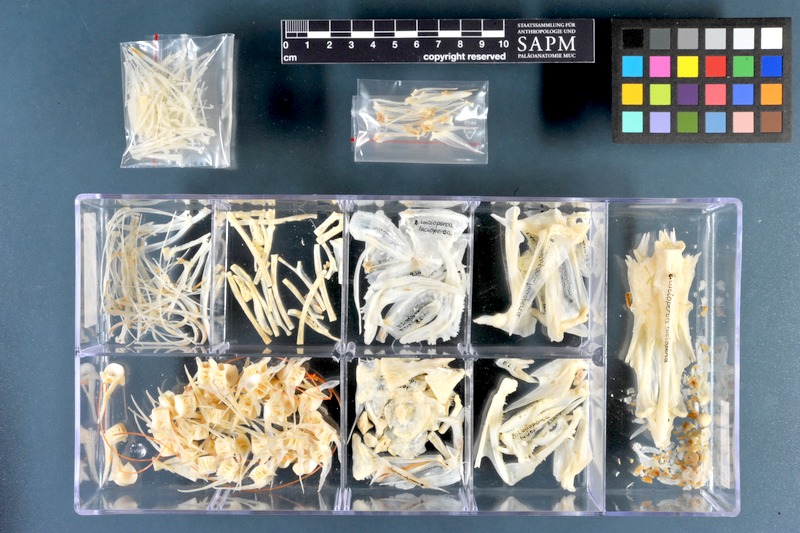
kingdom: Animalia
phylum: Chordata
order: Perciformes
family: Percidae
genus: Sander
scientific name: Sander lucioperca
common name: Pikeperch
